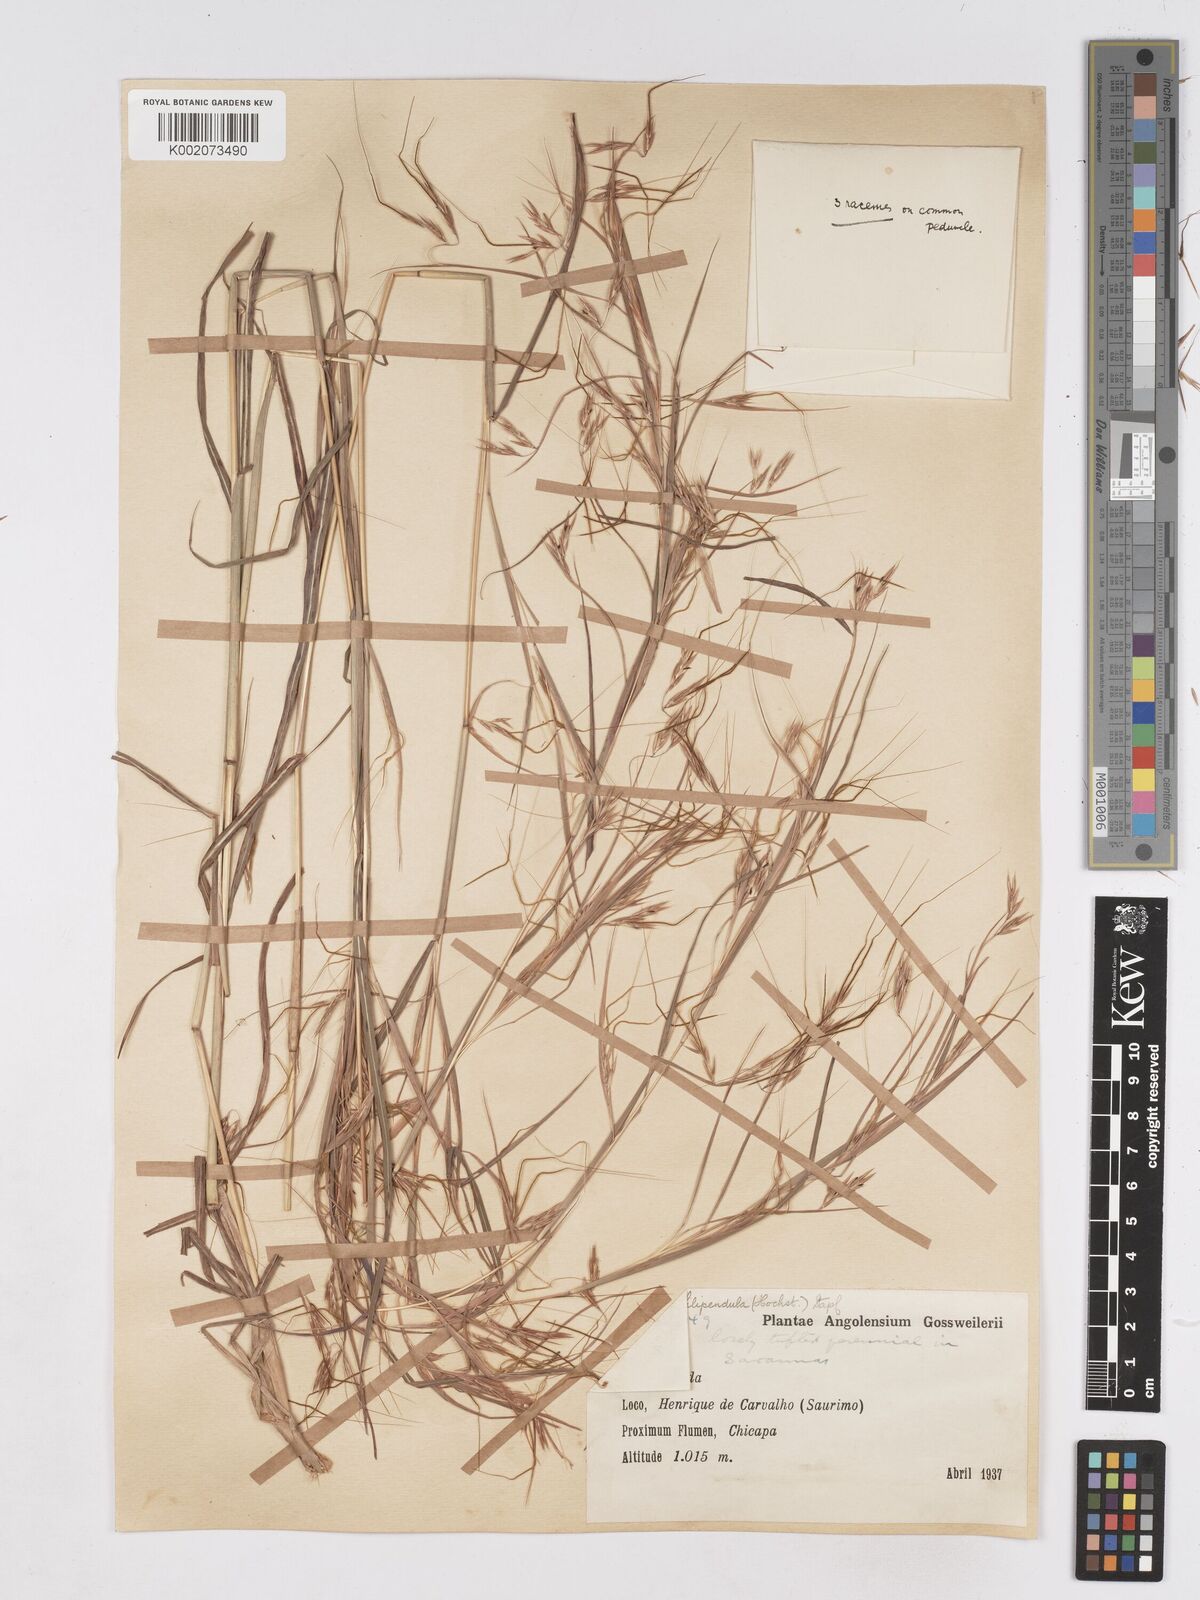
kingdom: Plantae
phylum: Tracheophyta
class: Liliopsida
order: Poales
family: Poaceae
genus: Hyparrhenia
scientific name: Hyparrhenia filipendula
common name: Tambookie grass
